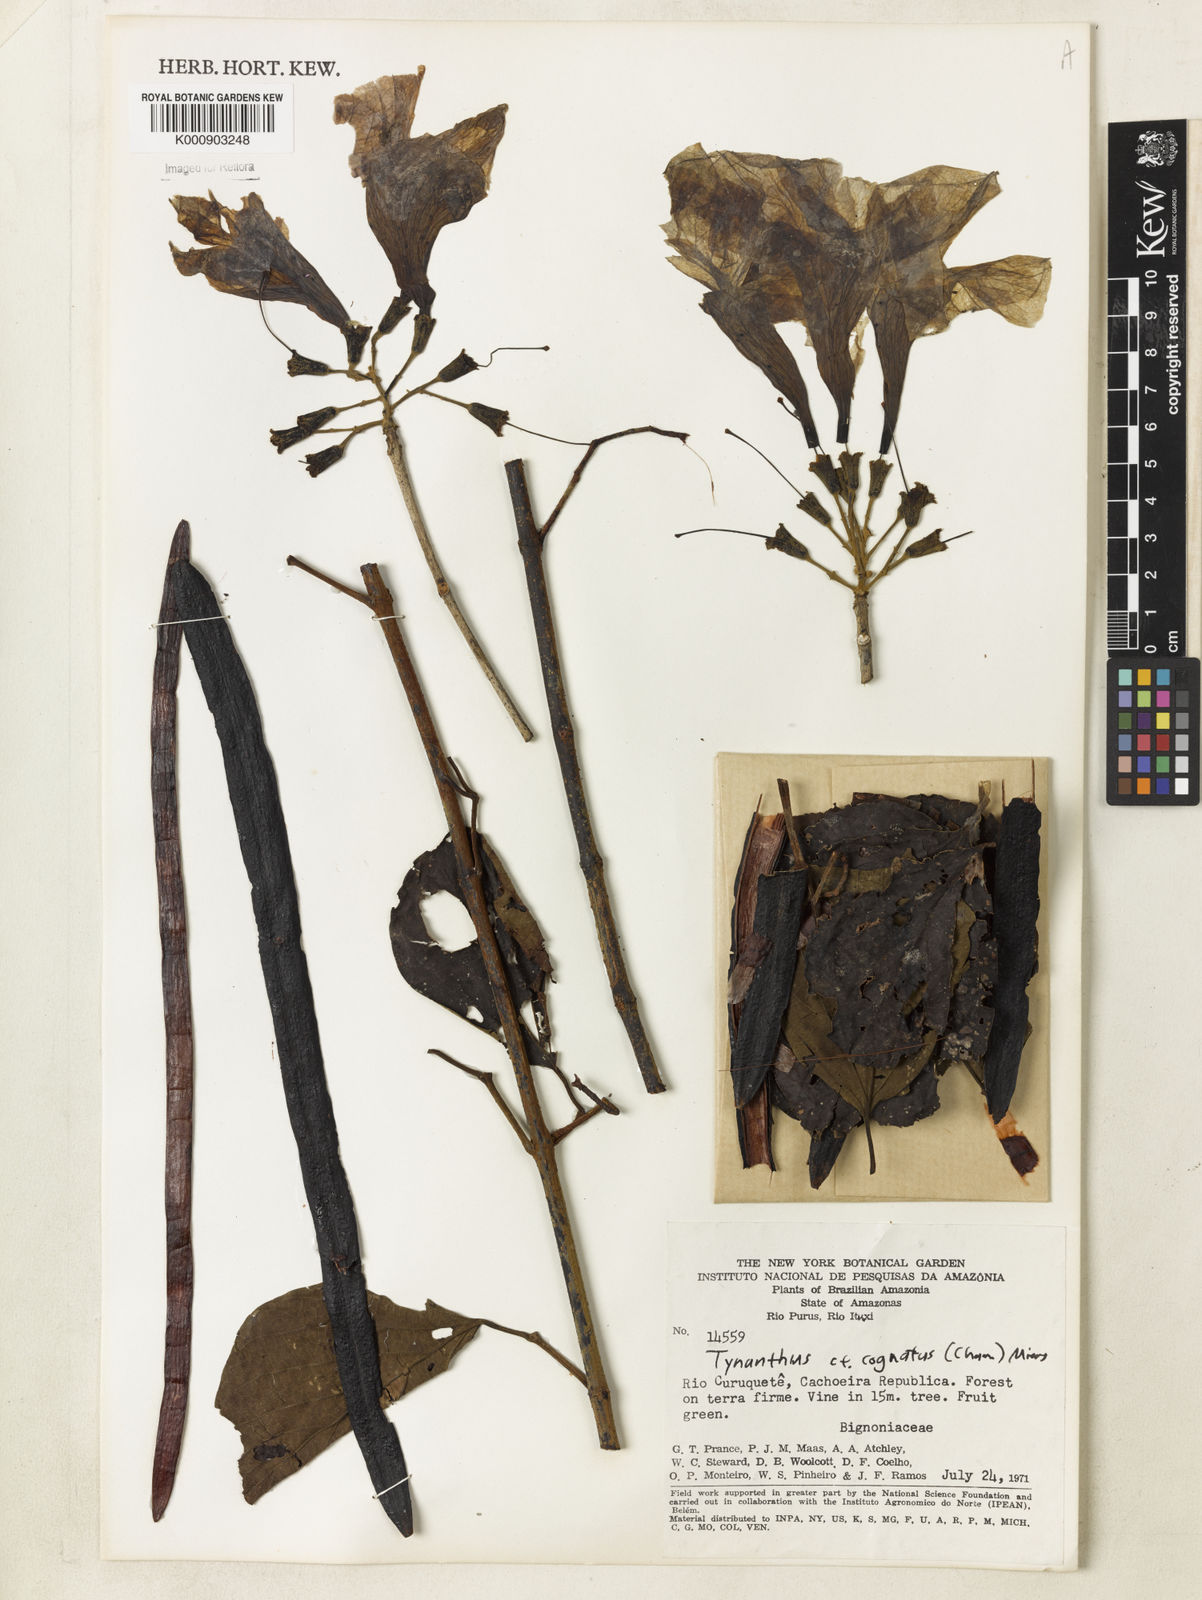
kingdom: Plantae
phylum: Tracheophyta
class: Magnoliopsida
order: Lamiales
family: Bignoniaceae
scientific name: Bignoniaceae
